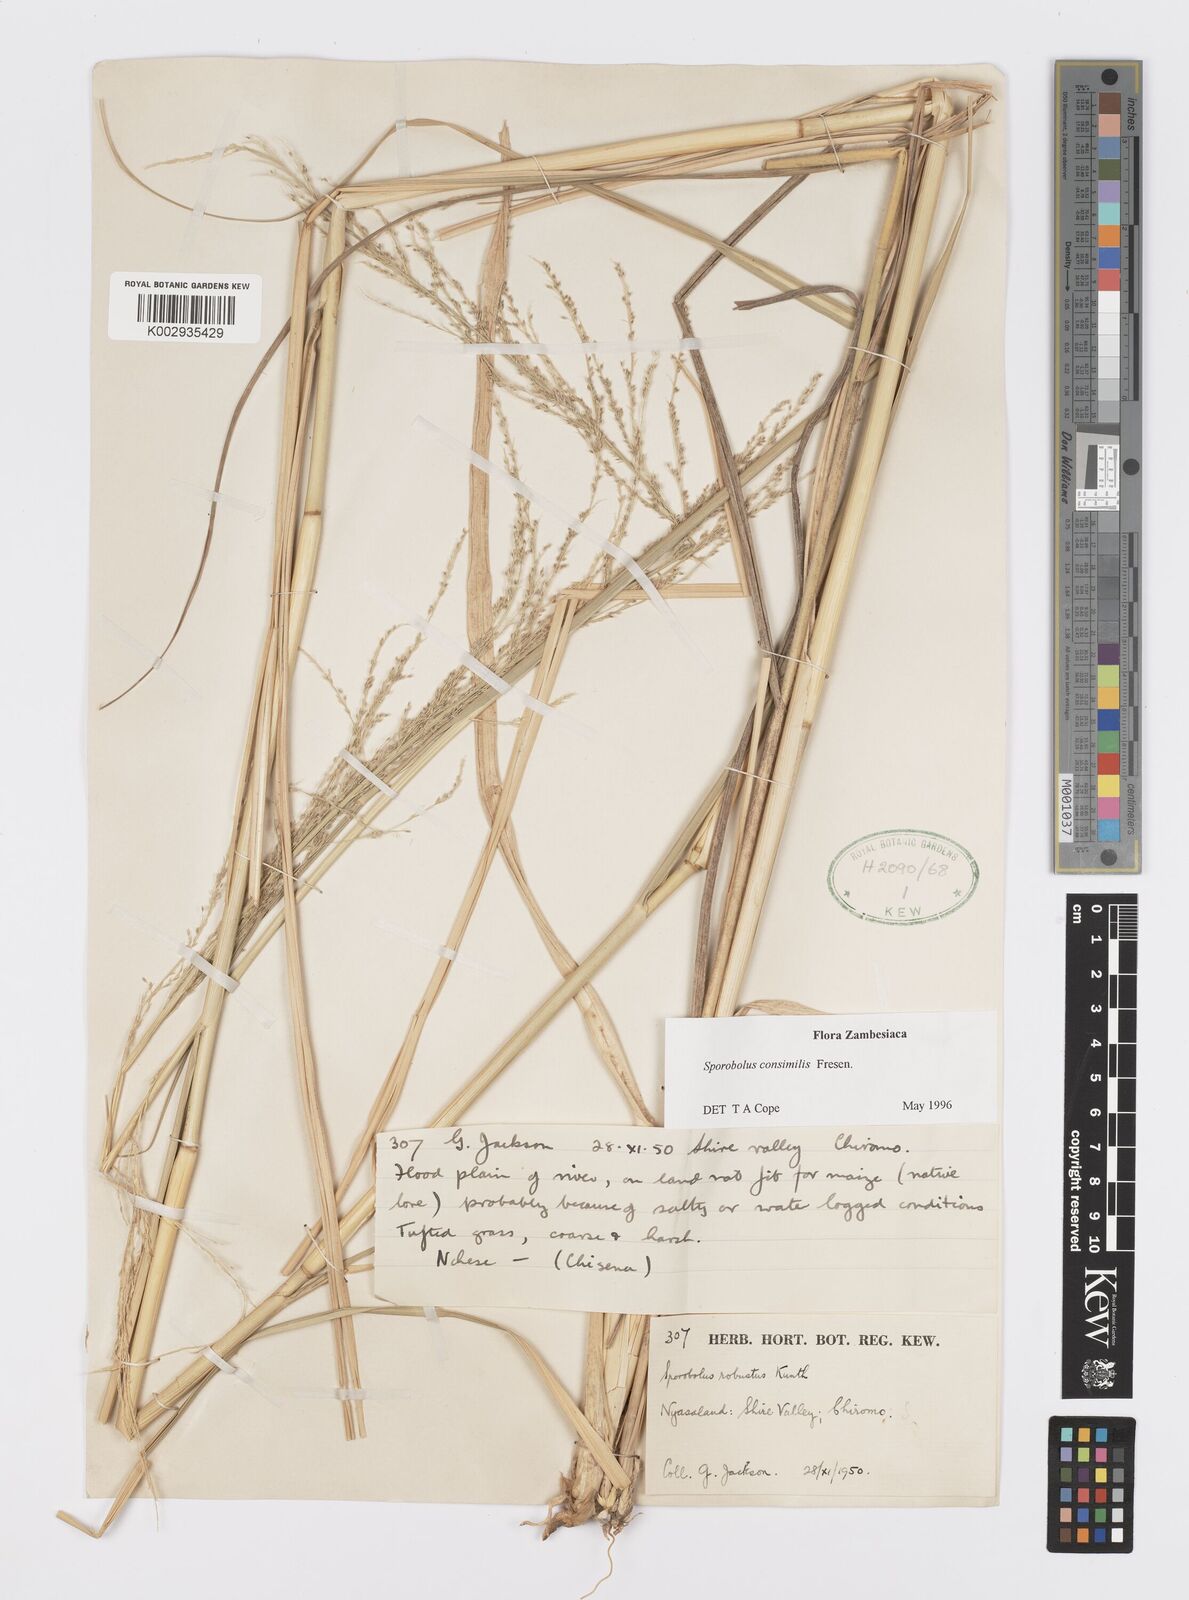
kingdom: Plantae
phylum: Tracheophyta
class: Liliopsida
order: Poales
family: Poaceae
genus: Sporobolus
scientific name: Sporobolus consimilis
